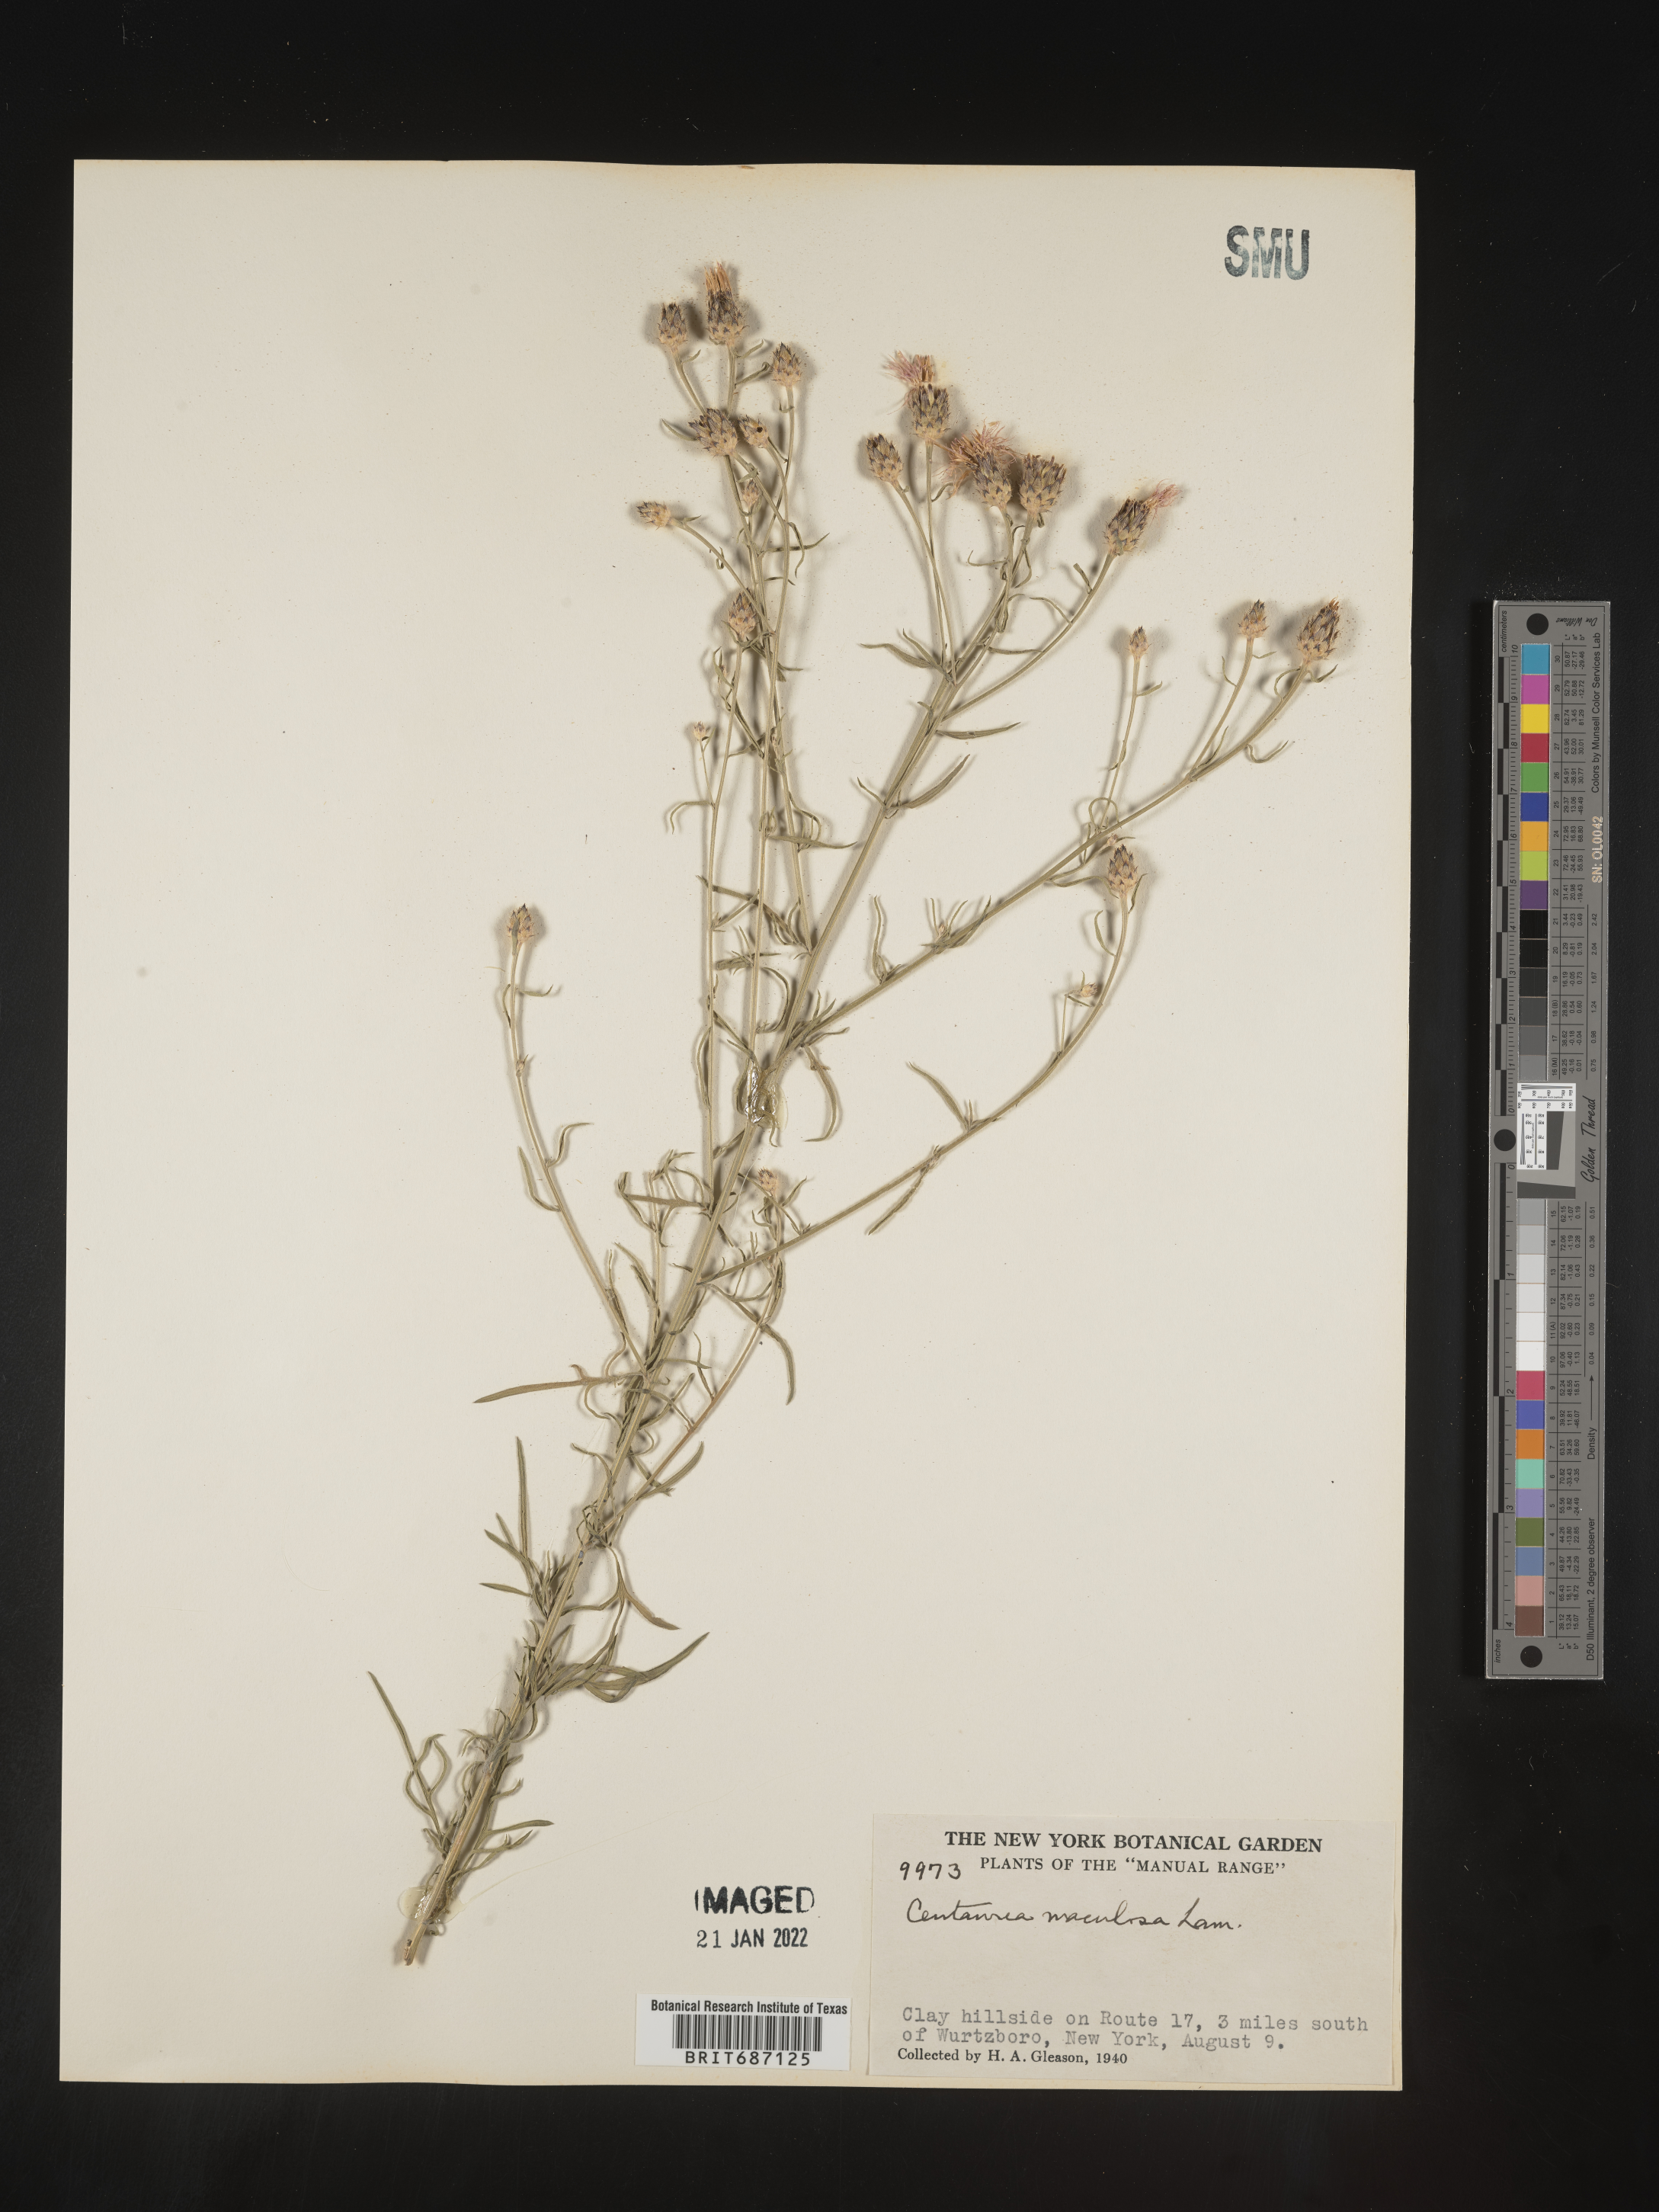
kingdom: Plantae
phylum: Tracheophyta
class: Magnoliopsida
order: Asterales
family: Asteraceae
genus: Centaurea
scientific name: Centaurea stoebe
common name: Spotted knapweed
